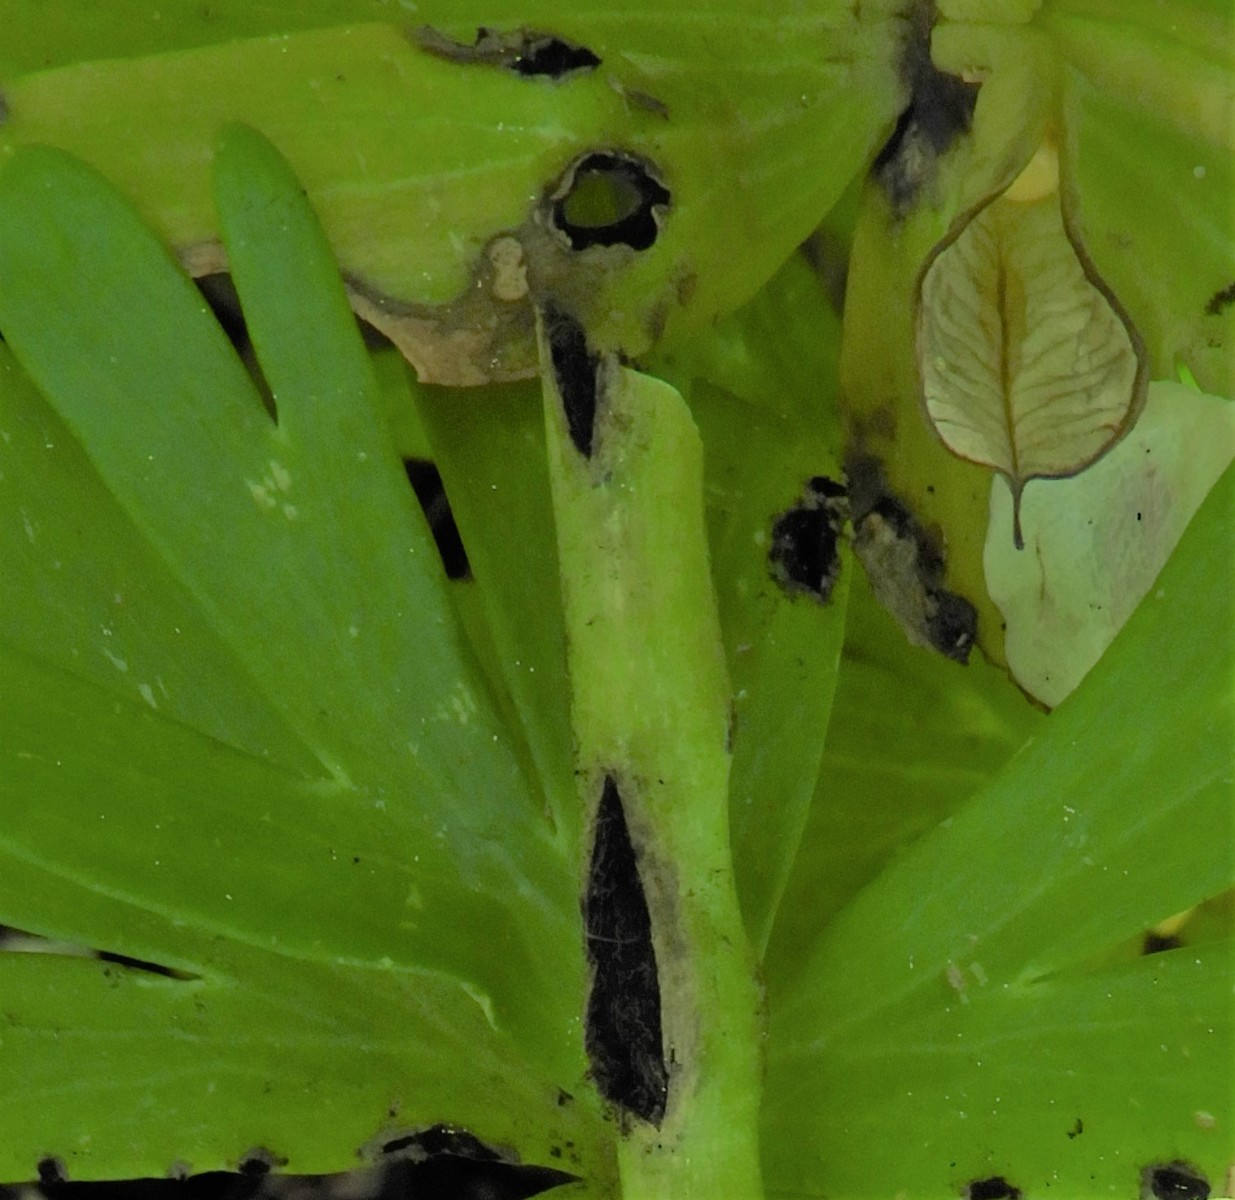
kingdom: Fungi
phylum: Basidiomycota
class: Ustilaginomycetes
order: Urocystidales
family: Urocystidaceae
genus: Urocystis
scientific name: Urocystis eranthidis
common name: erantis-brand
